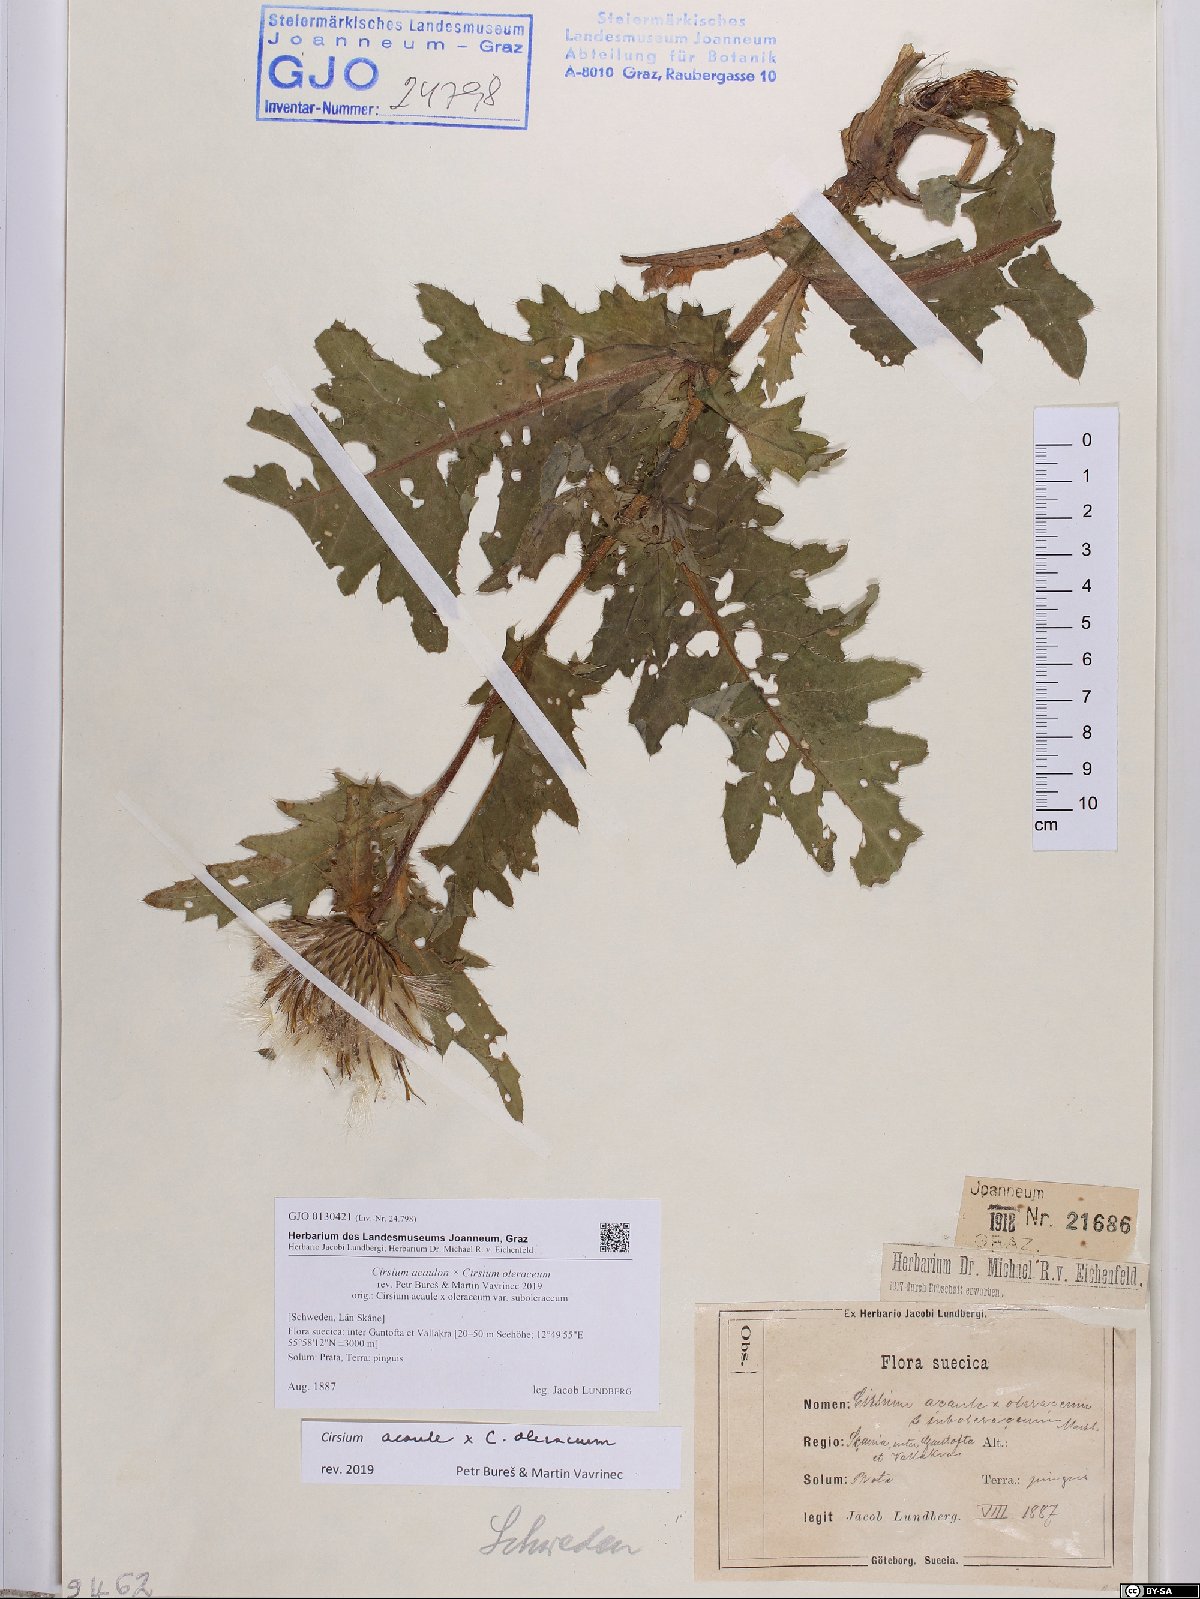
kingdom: Plantae
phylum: Tracheophyta
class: Magnoliopsida
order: Asterales
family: Asteraceae
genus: Cirsium
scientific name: Cirsium rigens
